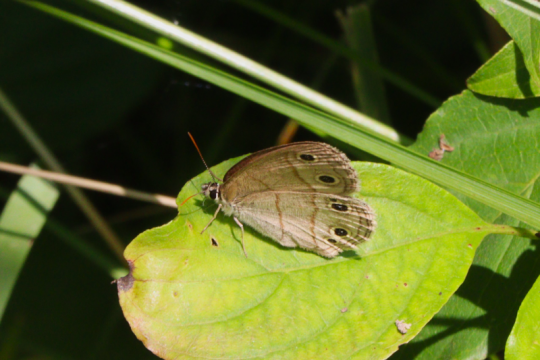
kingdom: Animalia
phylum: Arthropoda
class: Insecta
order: Lepidoptera
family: Nymphalidae
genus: Euptychia
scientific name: Euptychia cymela
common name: Little Wood Satyr
